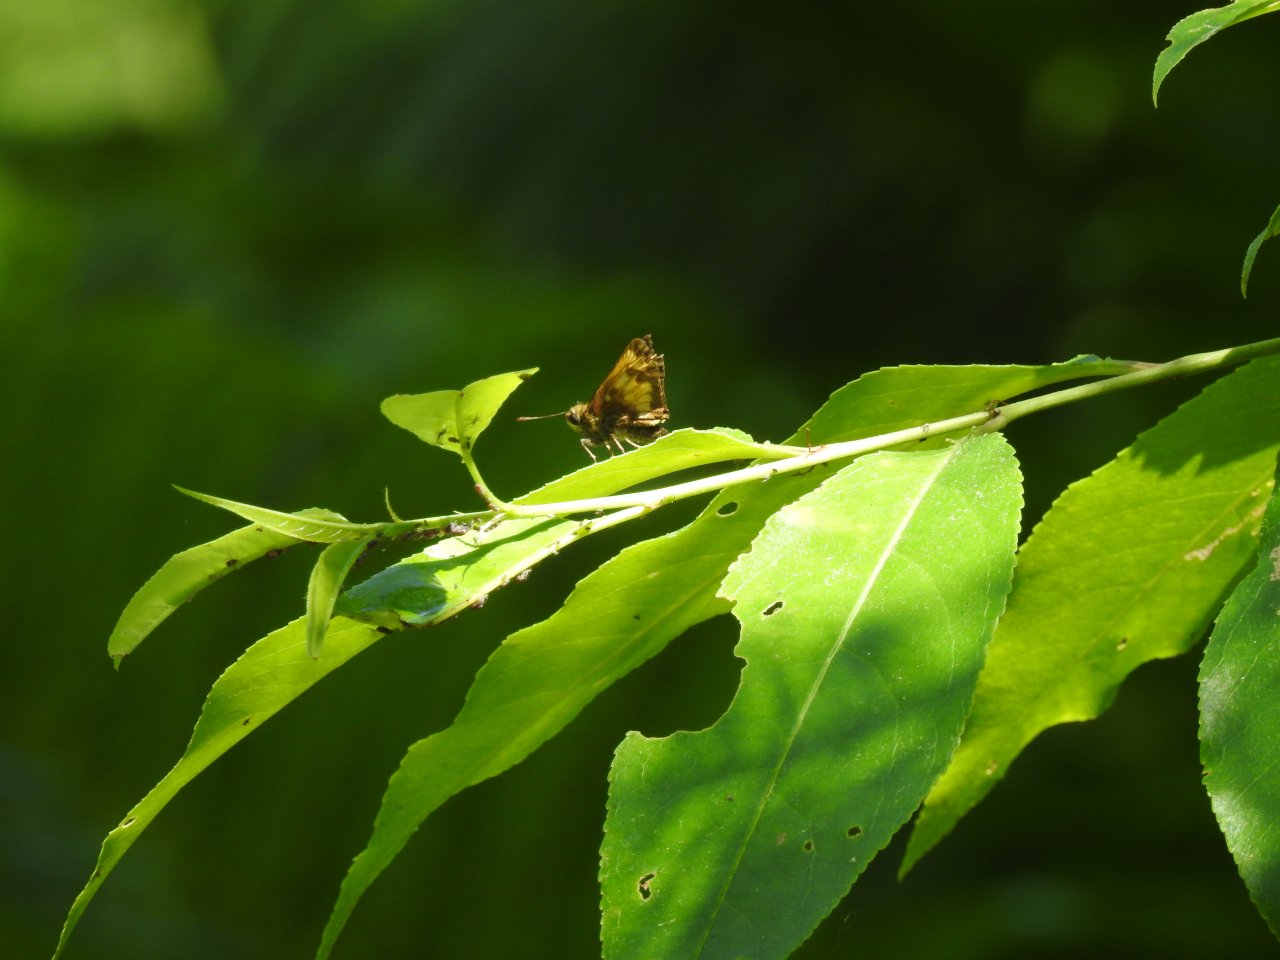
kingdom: Animalia
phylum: Arthropoda
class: Insecta
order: Lepidoptera
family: Hesperiidae
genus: Lon
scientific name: Lon hobomok
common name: Hobomok Skipper
